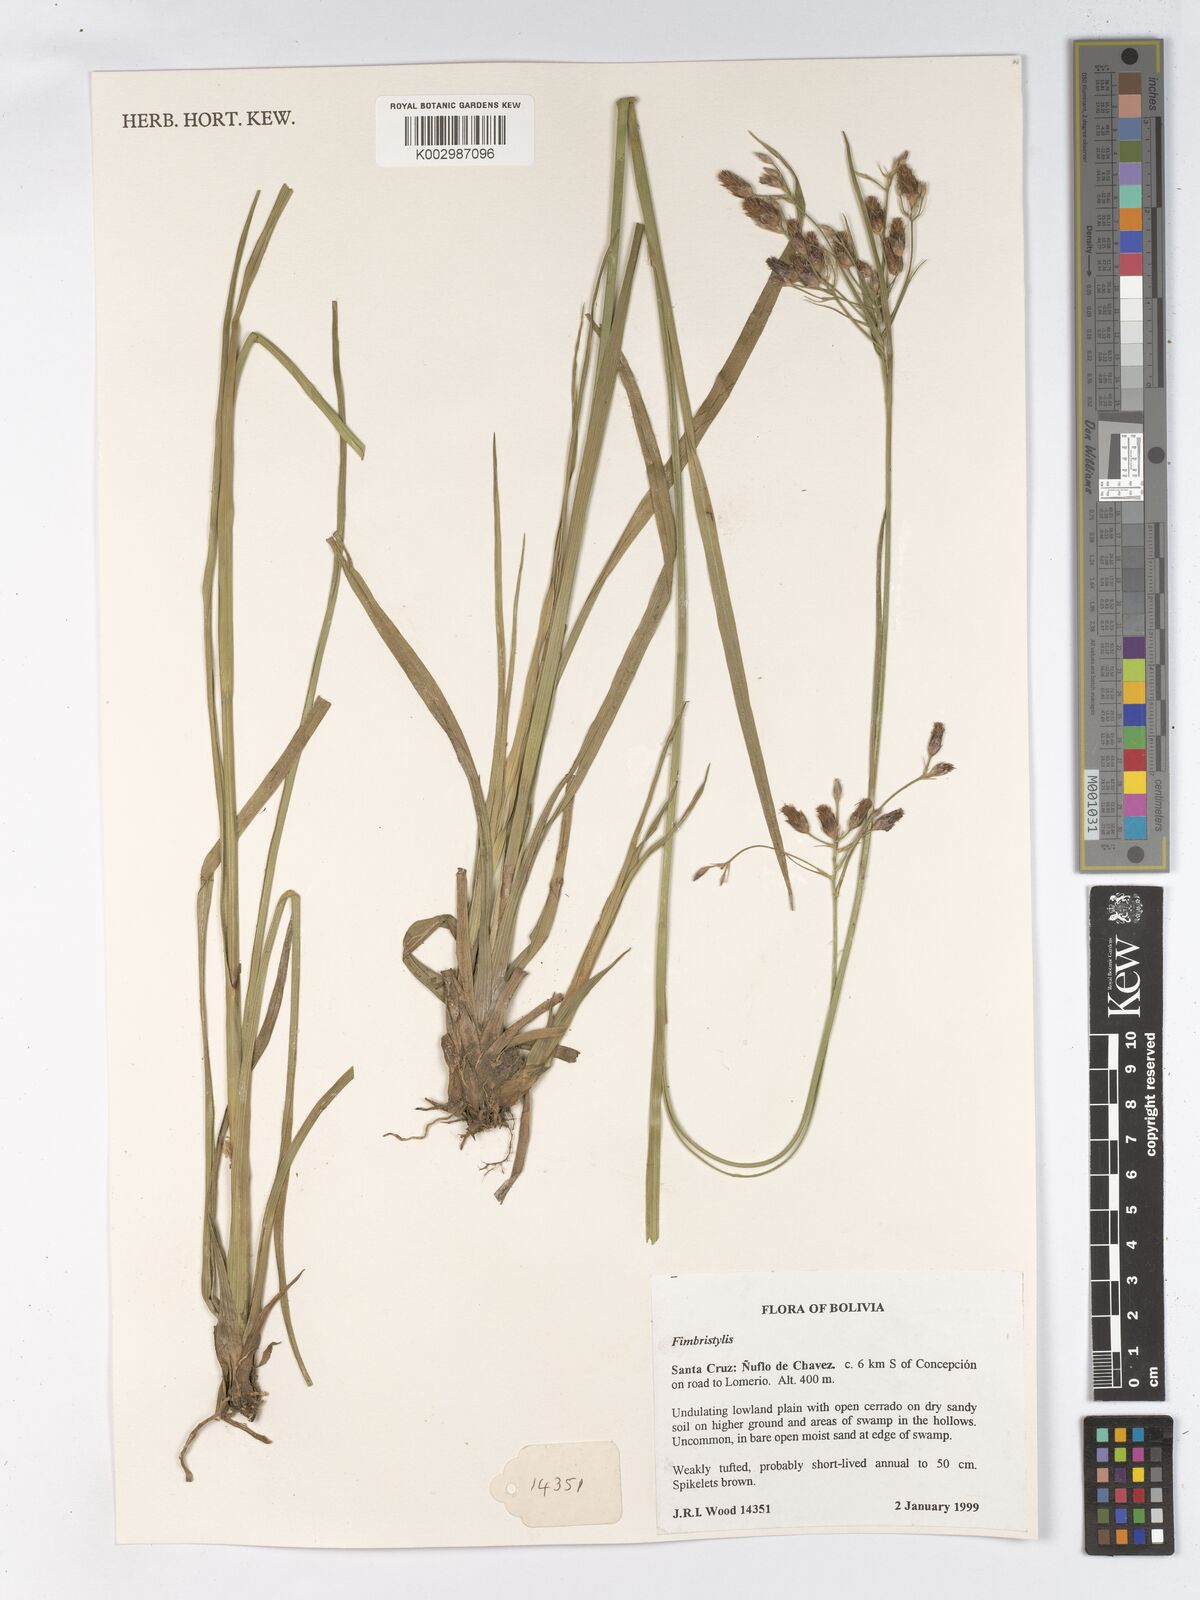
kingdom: Plantae
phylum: Tracheophyta
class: Liliopsida
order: Poales
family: Cyperaceae
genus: Fimbristylis
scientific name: Fimbristylis
